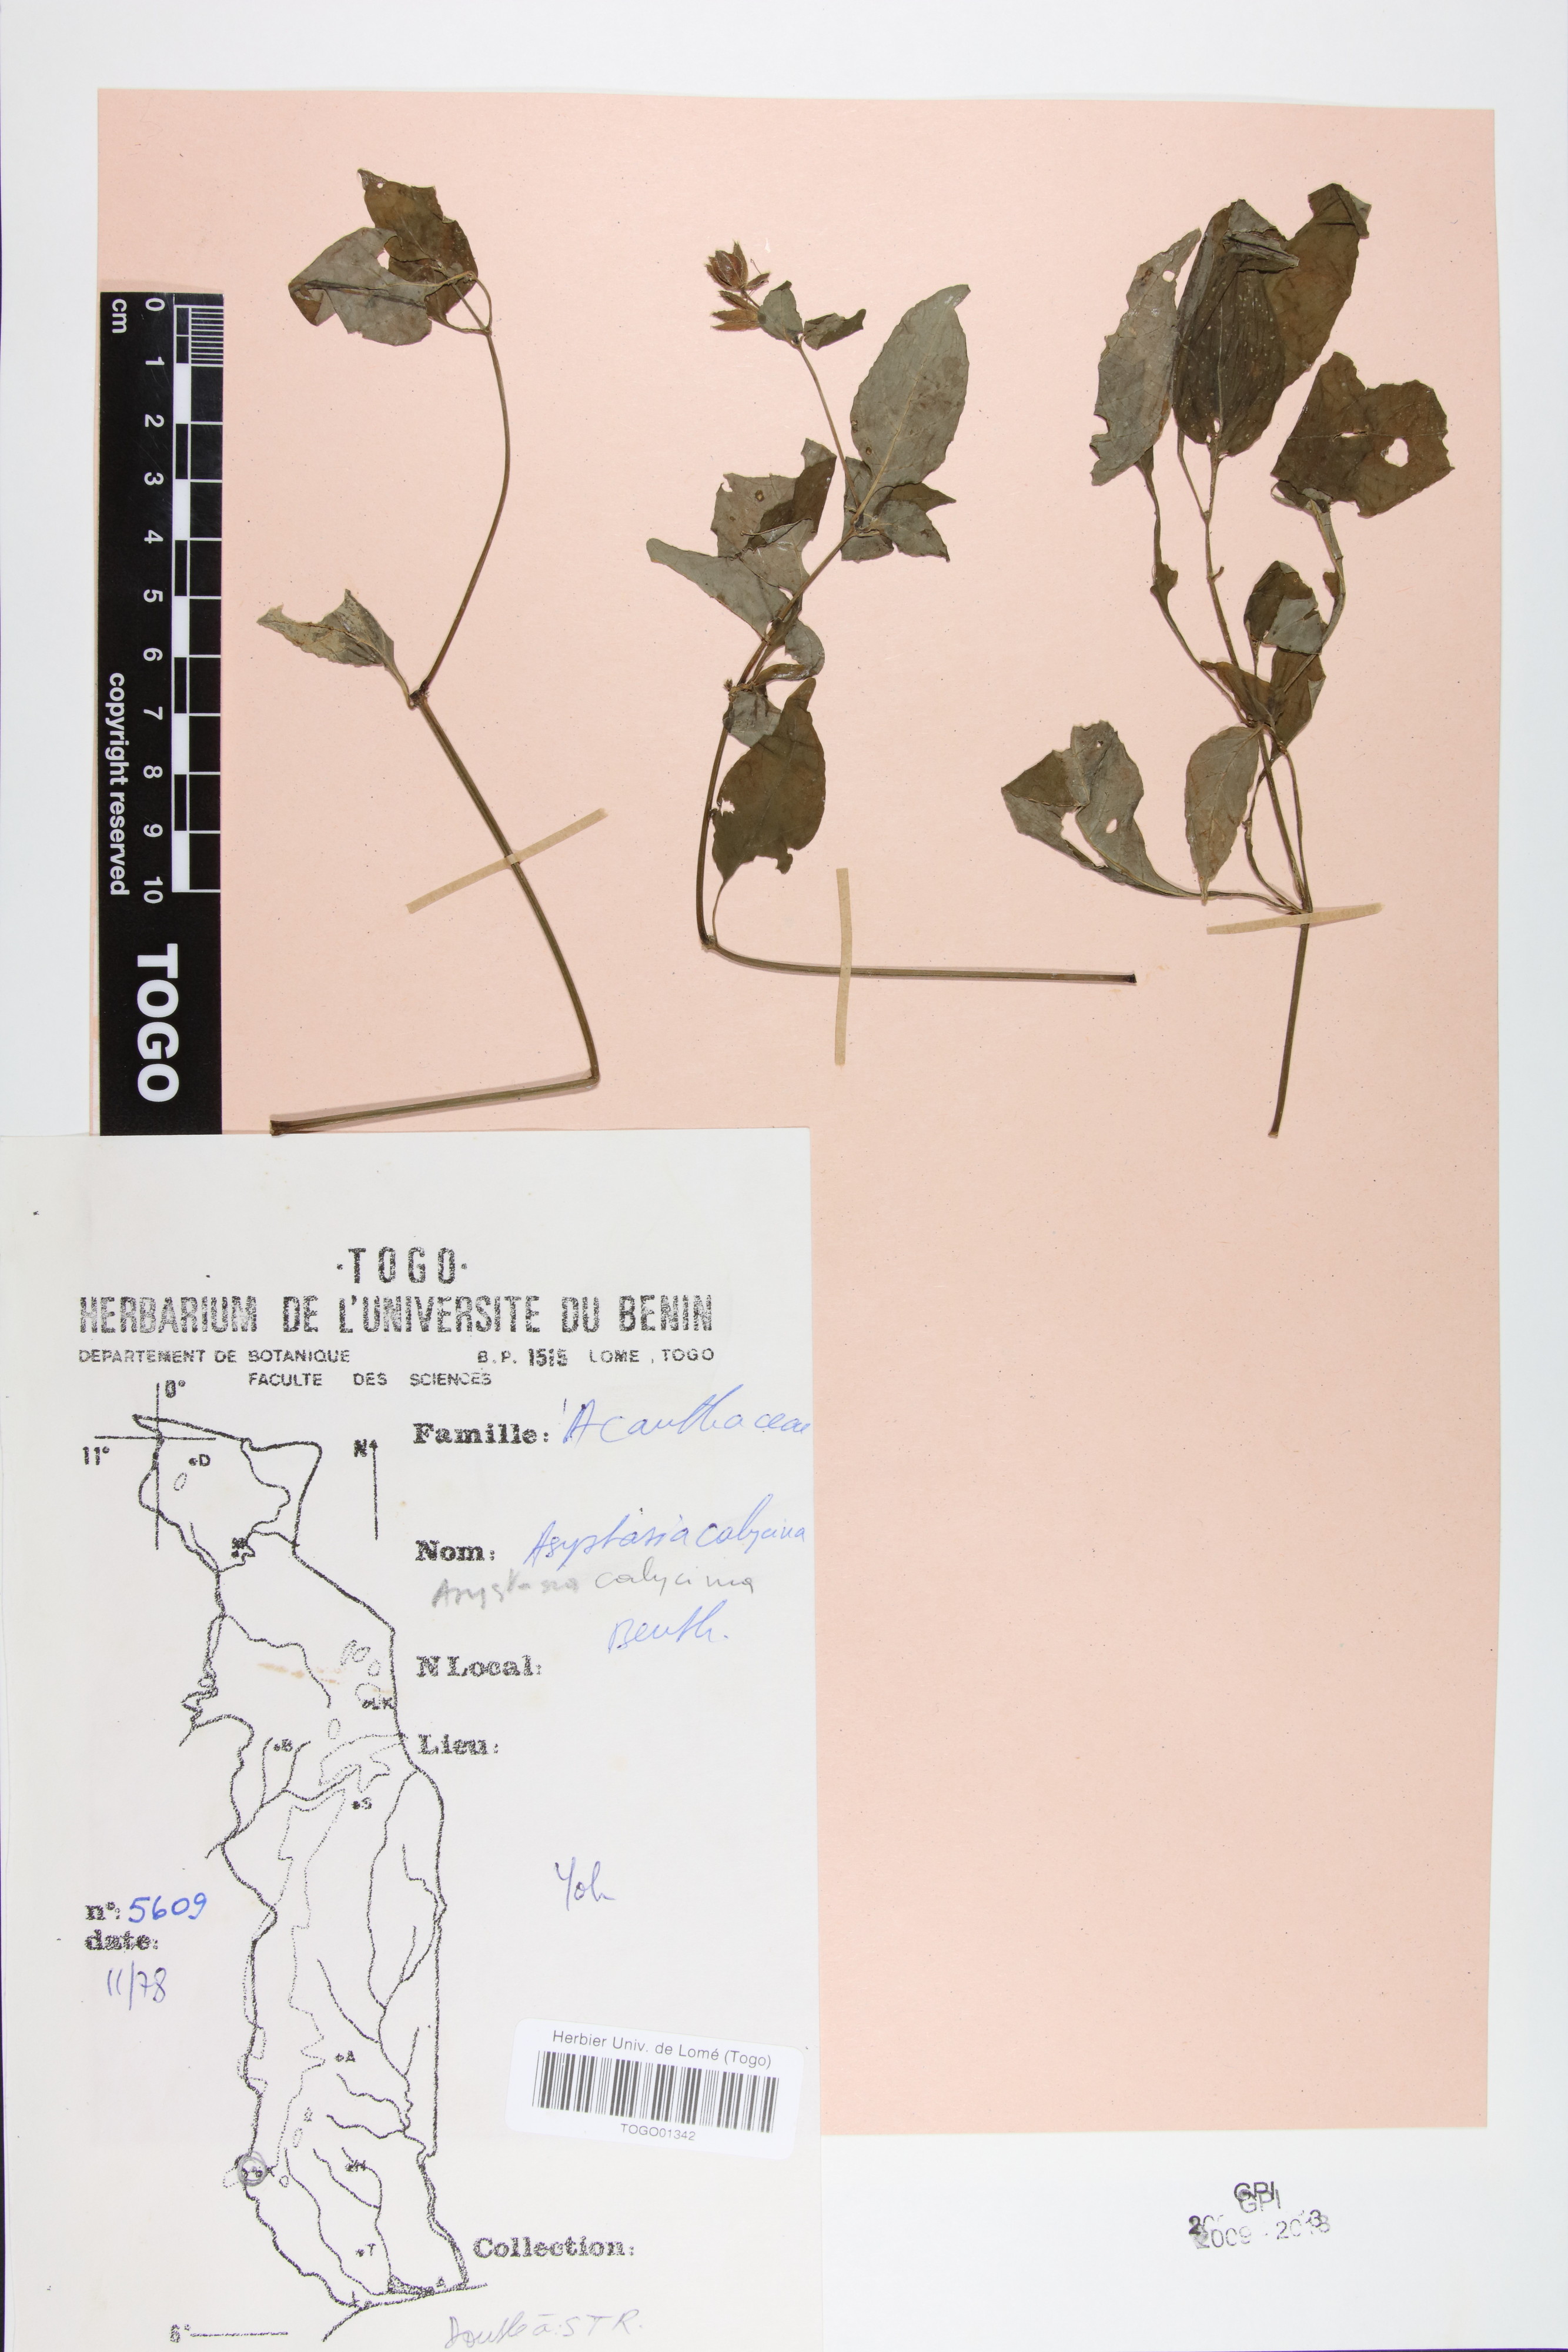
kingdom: Plantae
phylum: Tracheophyta
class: Magnoliopsida
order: Lamiales
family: Acanthaceae
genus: Asystasia
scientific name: Asystasia buettneri
